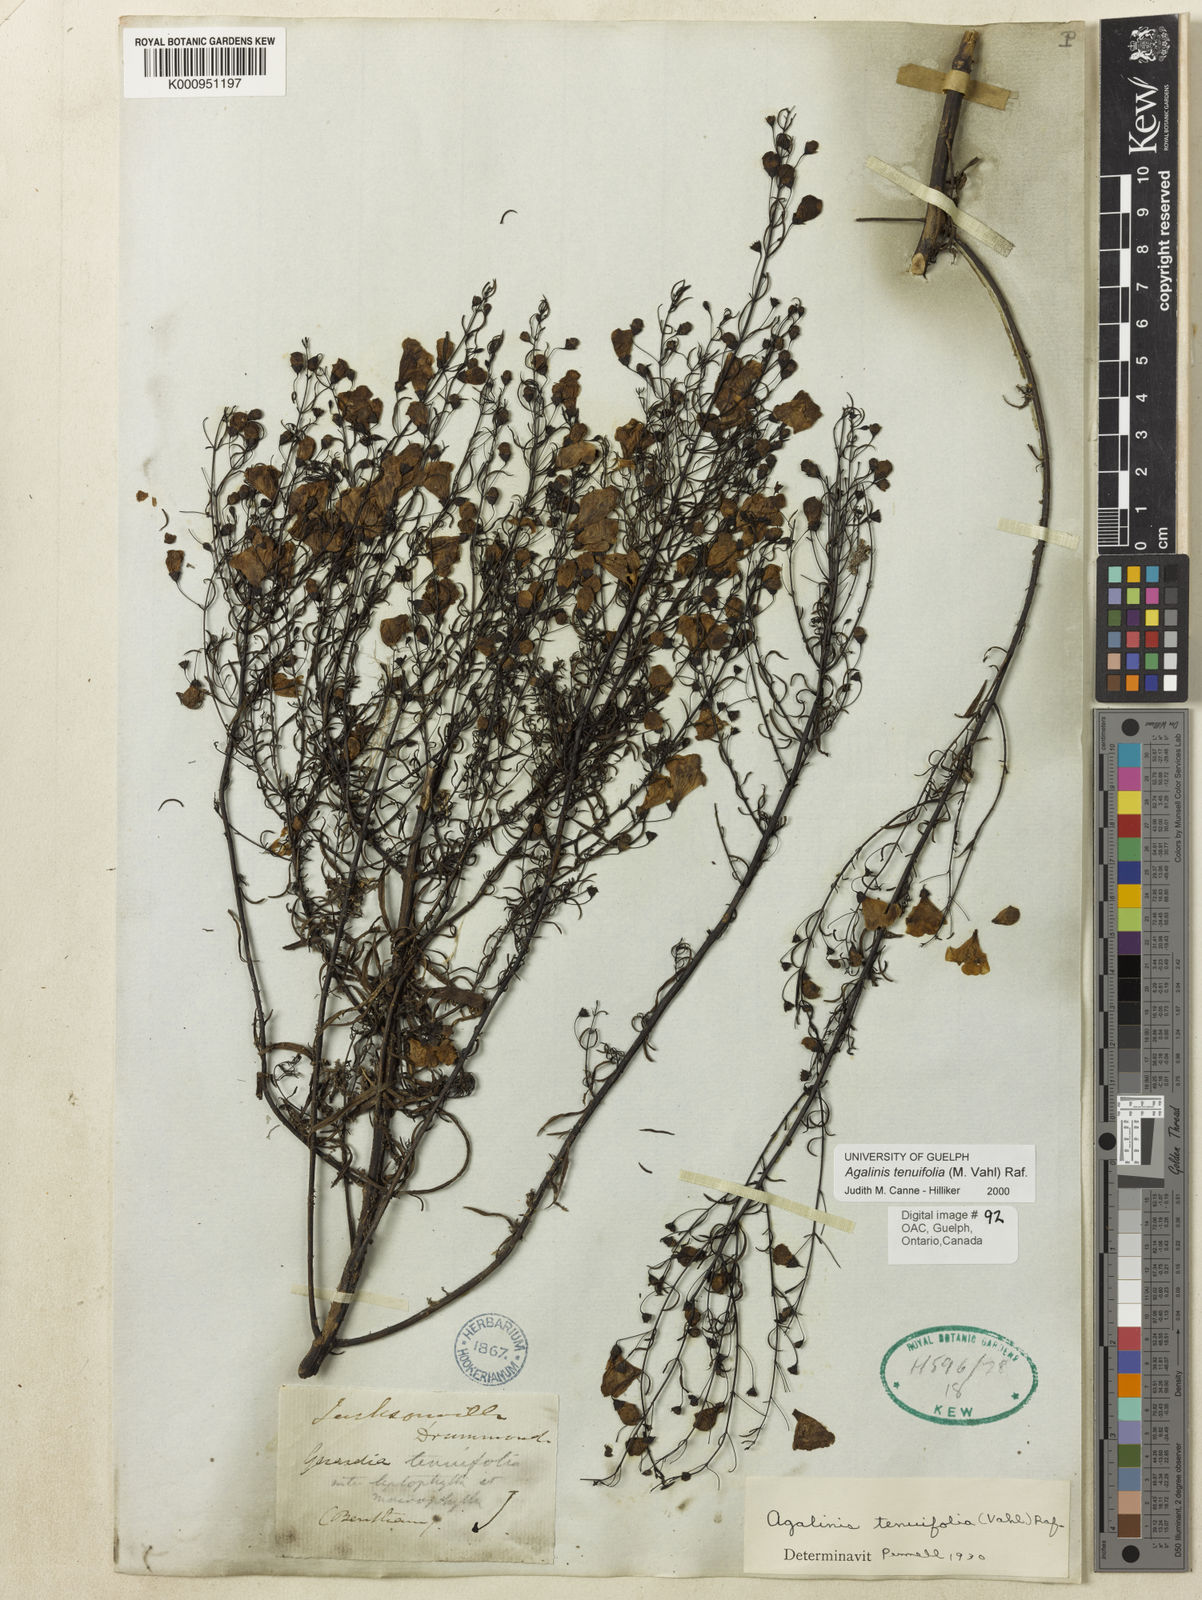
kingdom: Plantae
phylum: Tracheophyta
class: Magnoliopsida
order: Lamiales
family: Orobanchaceae
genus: Agalinis
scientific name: Agalinis tenuifolia
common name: Slender agalinis
